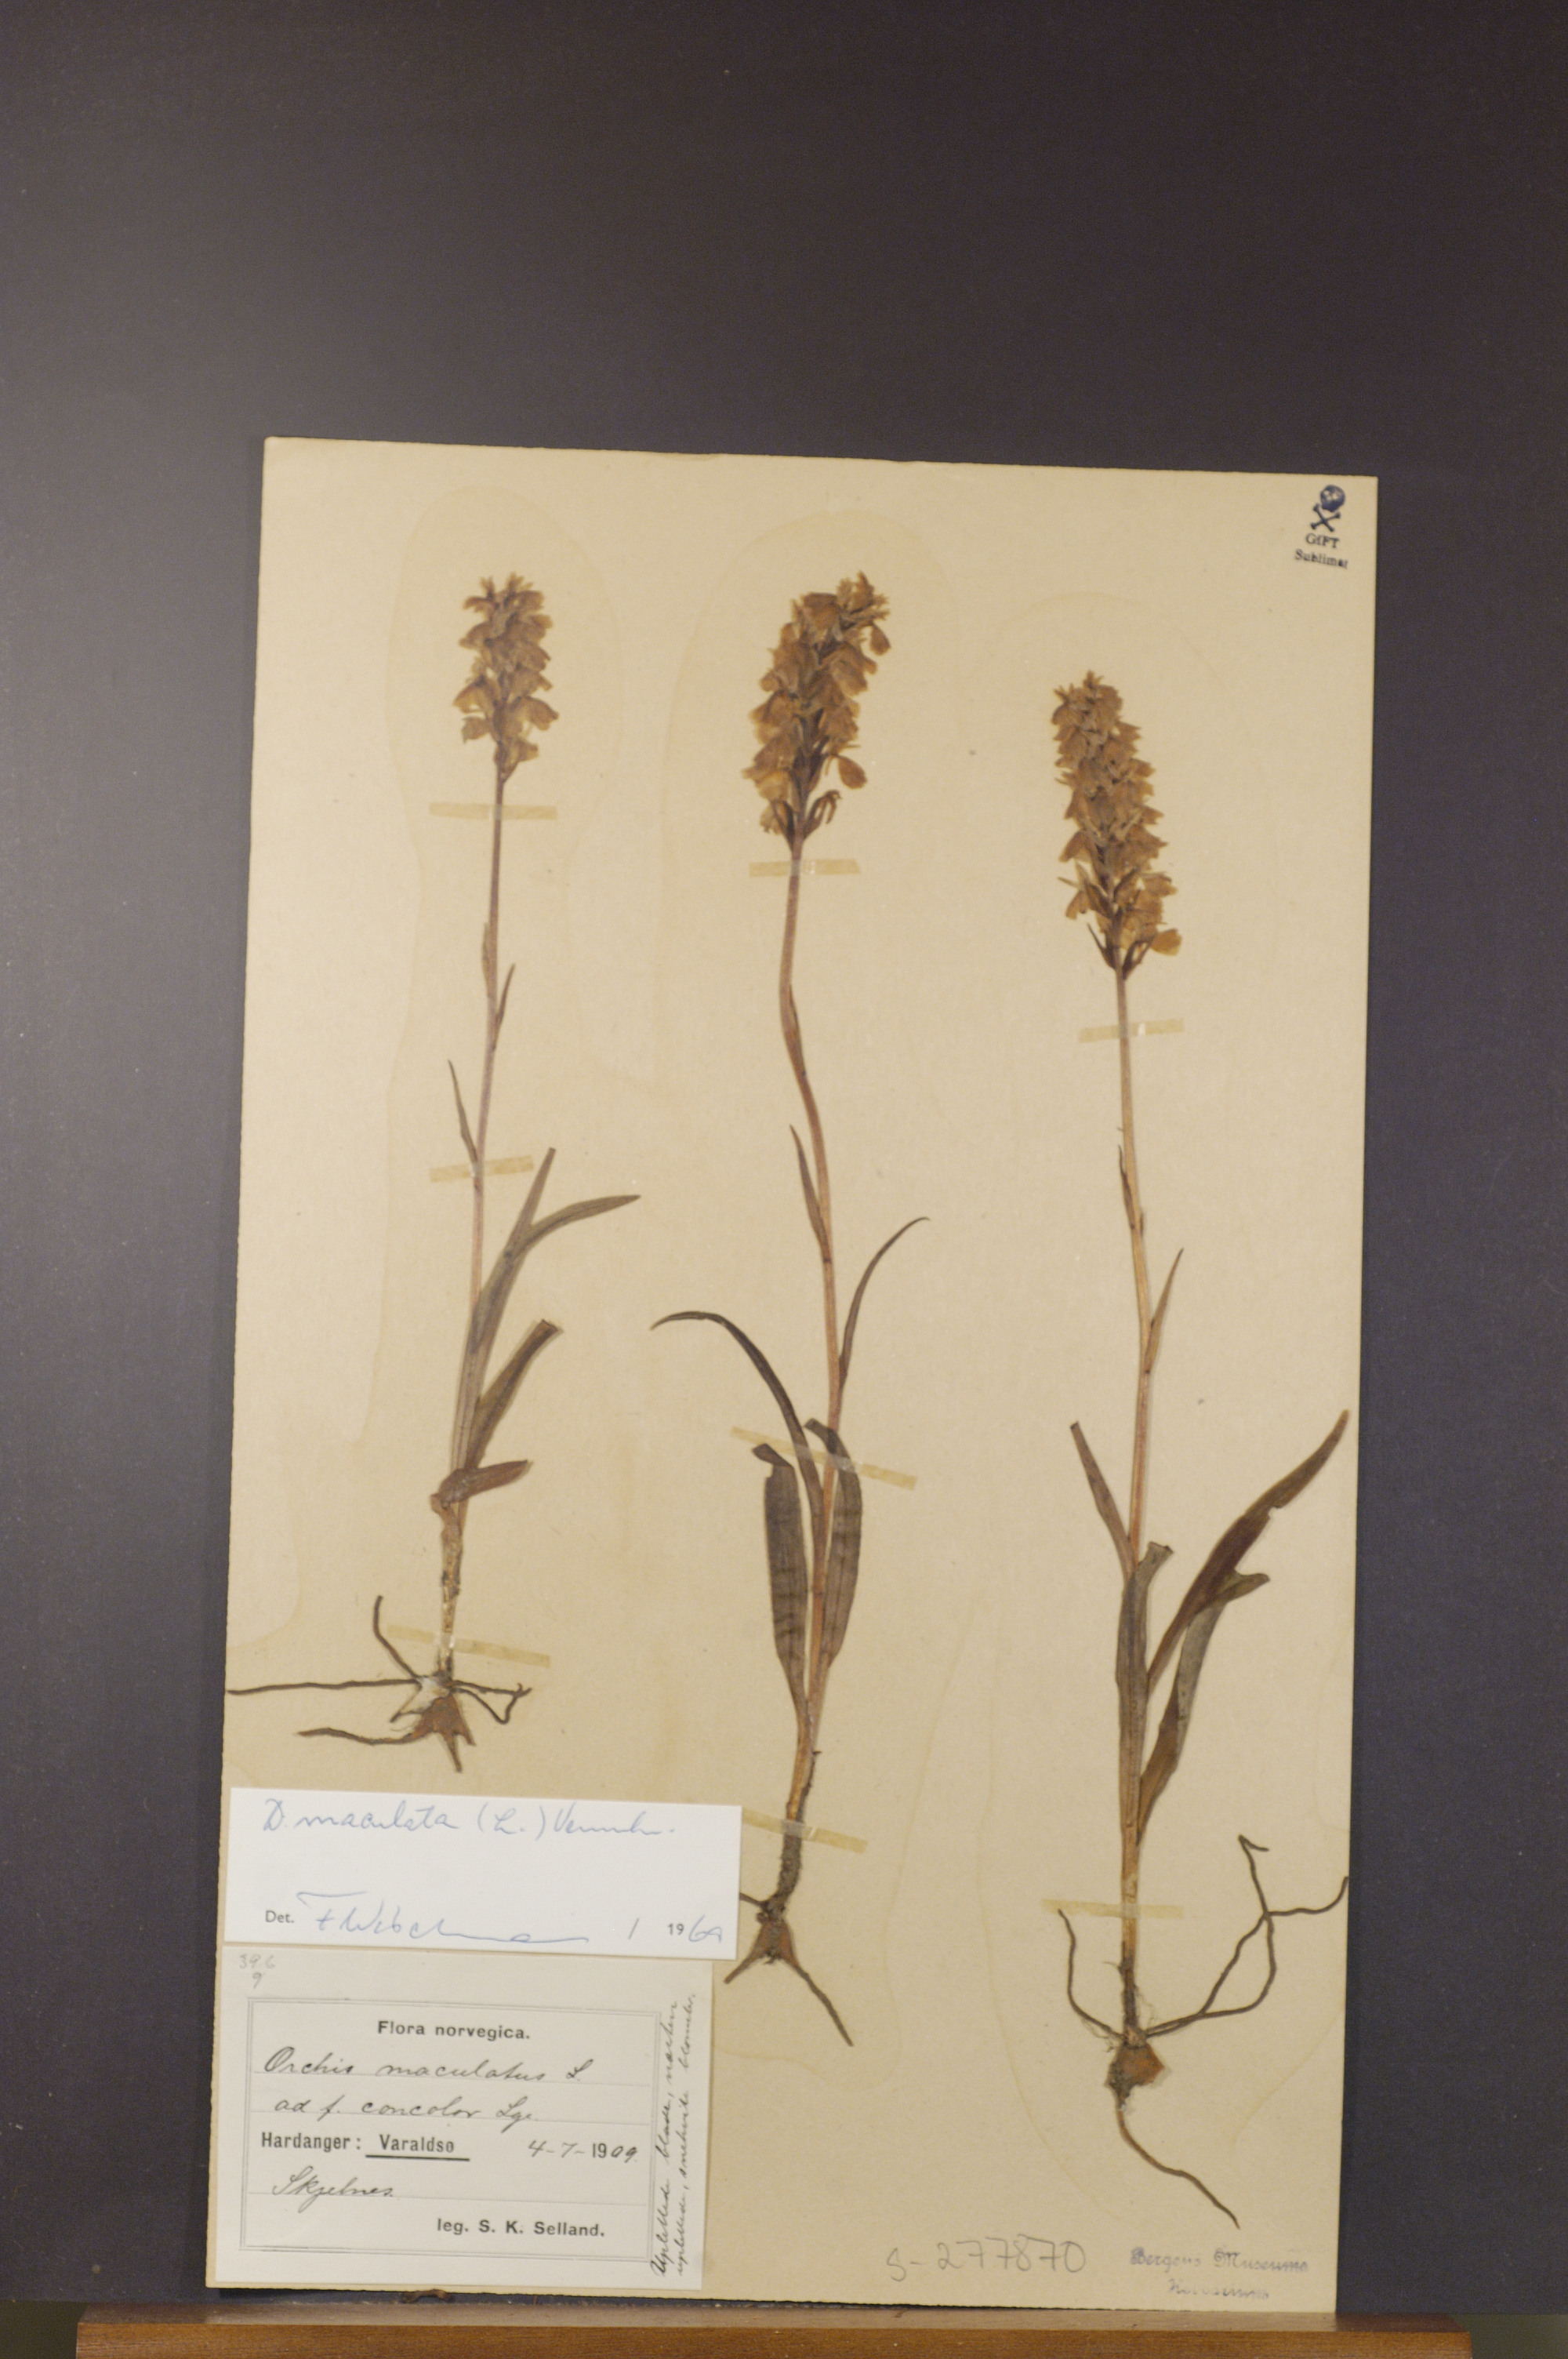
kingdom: Plantae
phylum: Tracheophyta
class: Liliopsida
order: Asparagales
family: Orchidaceae
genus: Dactylorhiza
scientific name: Dactylorhiza maculata
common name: Heath spotted-orchid
